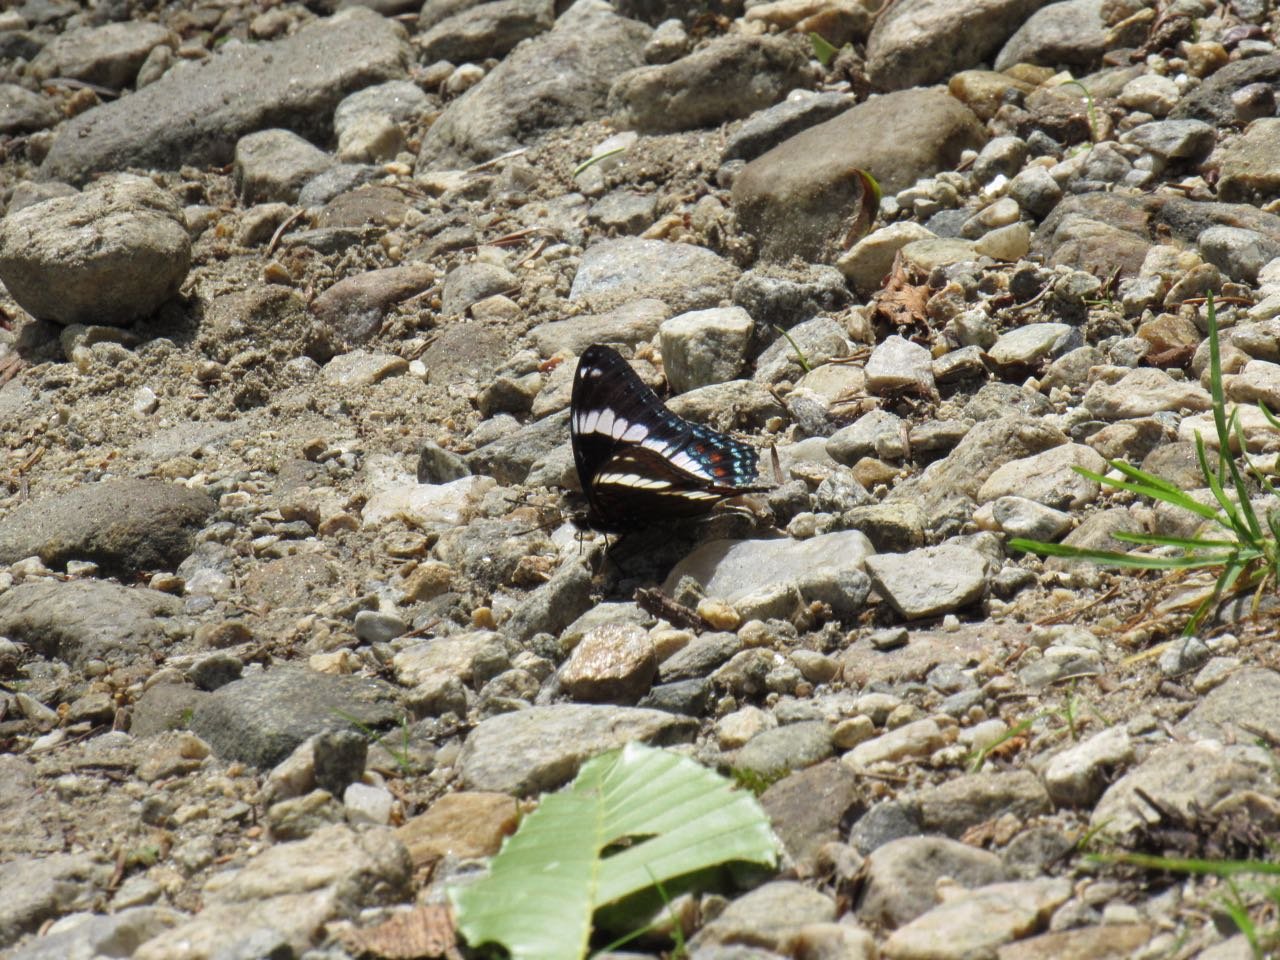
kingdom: Animalia
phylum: Arthropoda
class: Insecta
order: Lepidoptera
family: Nymphalidae
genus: Limenitis
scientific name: Limenitis arthemis
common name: Red-spotted Admiral
